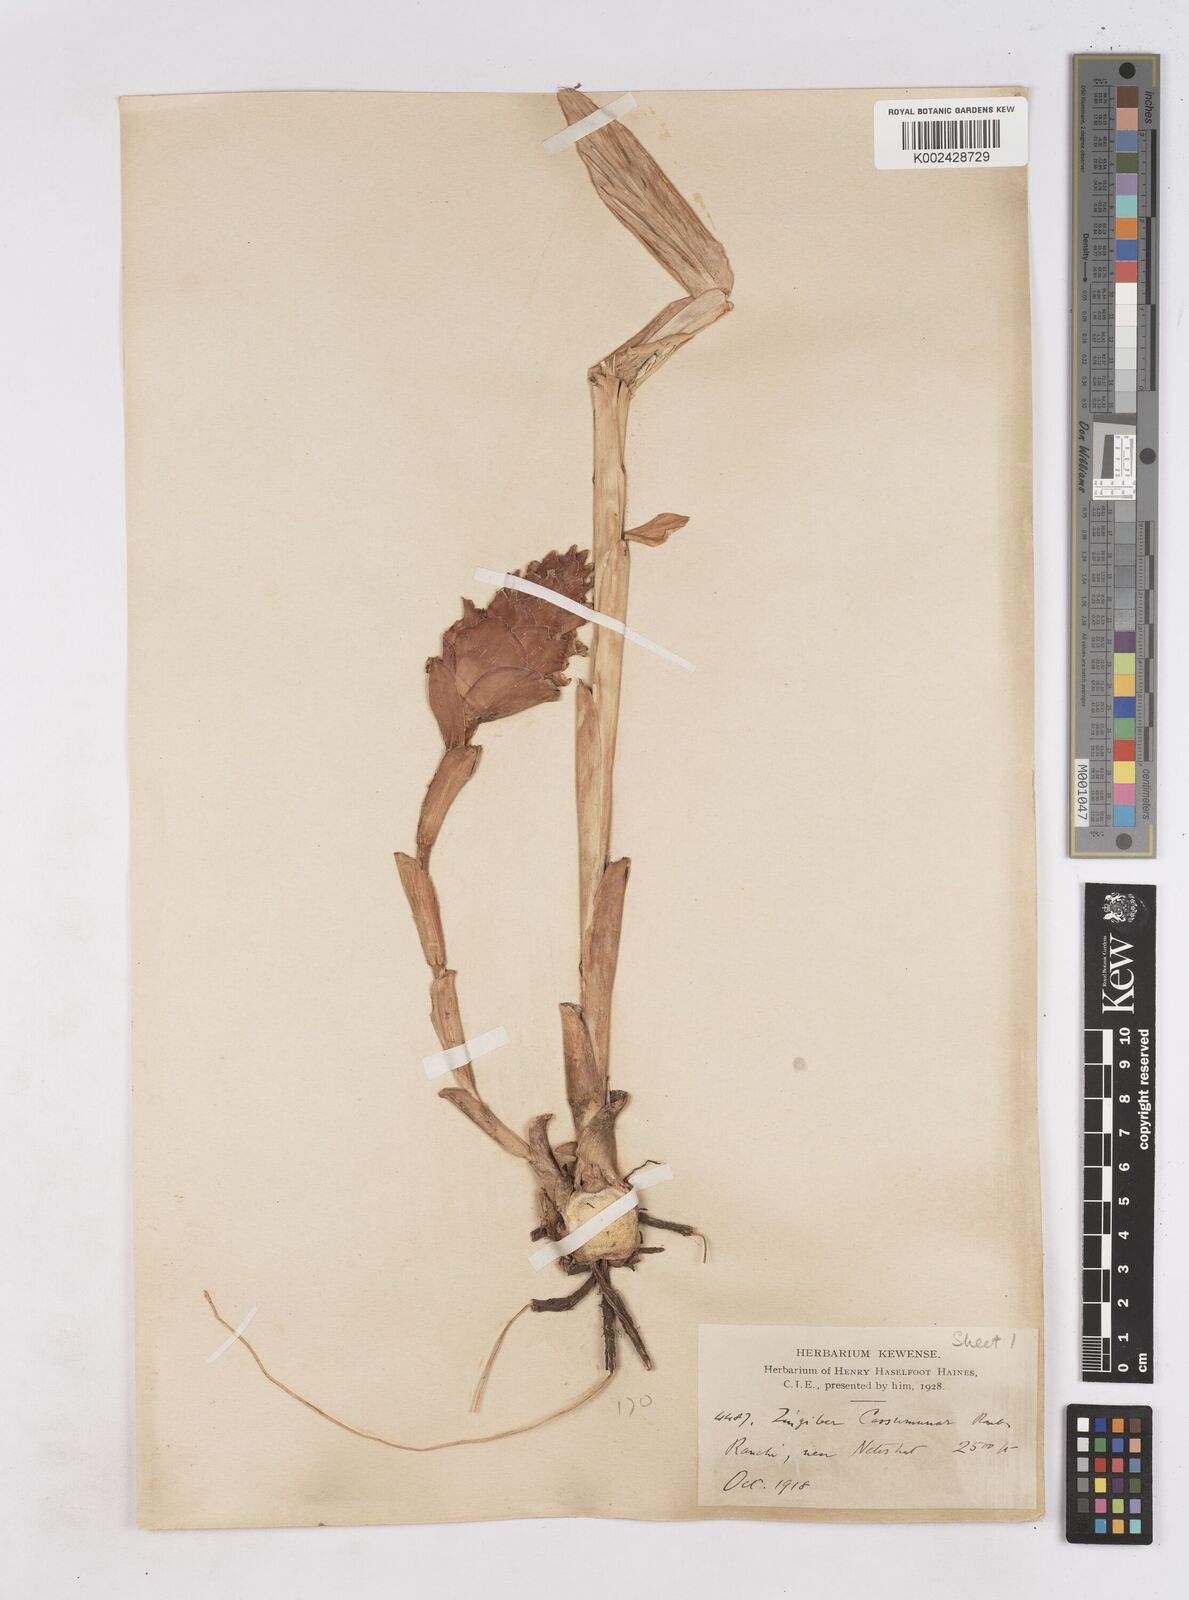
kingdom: Plantae
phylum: Tracheophyta
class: Liliopsida
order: Zingiberales
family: Zingiberaceae
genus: Zingiber
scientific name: Zingiber montanum
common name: Bengal ginger
